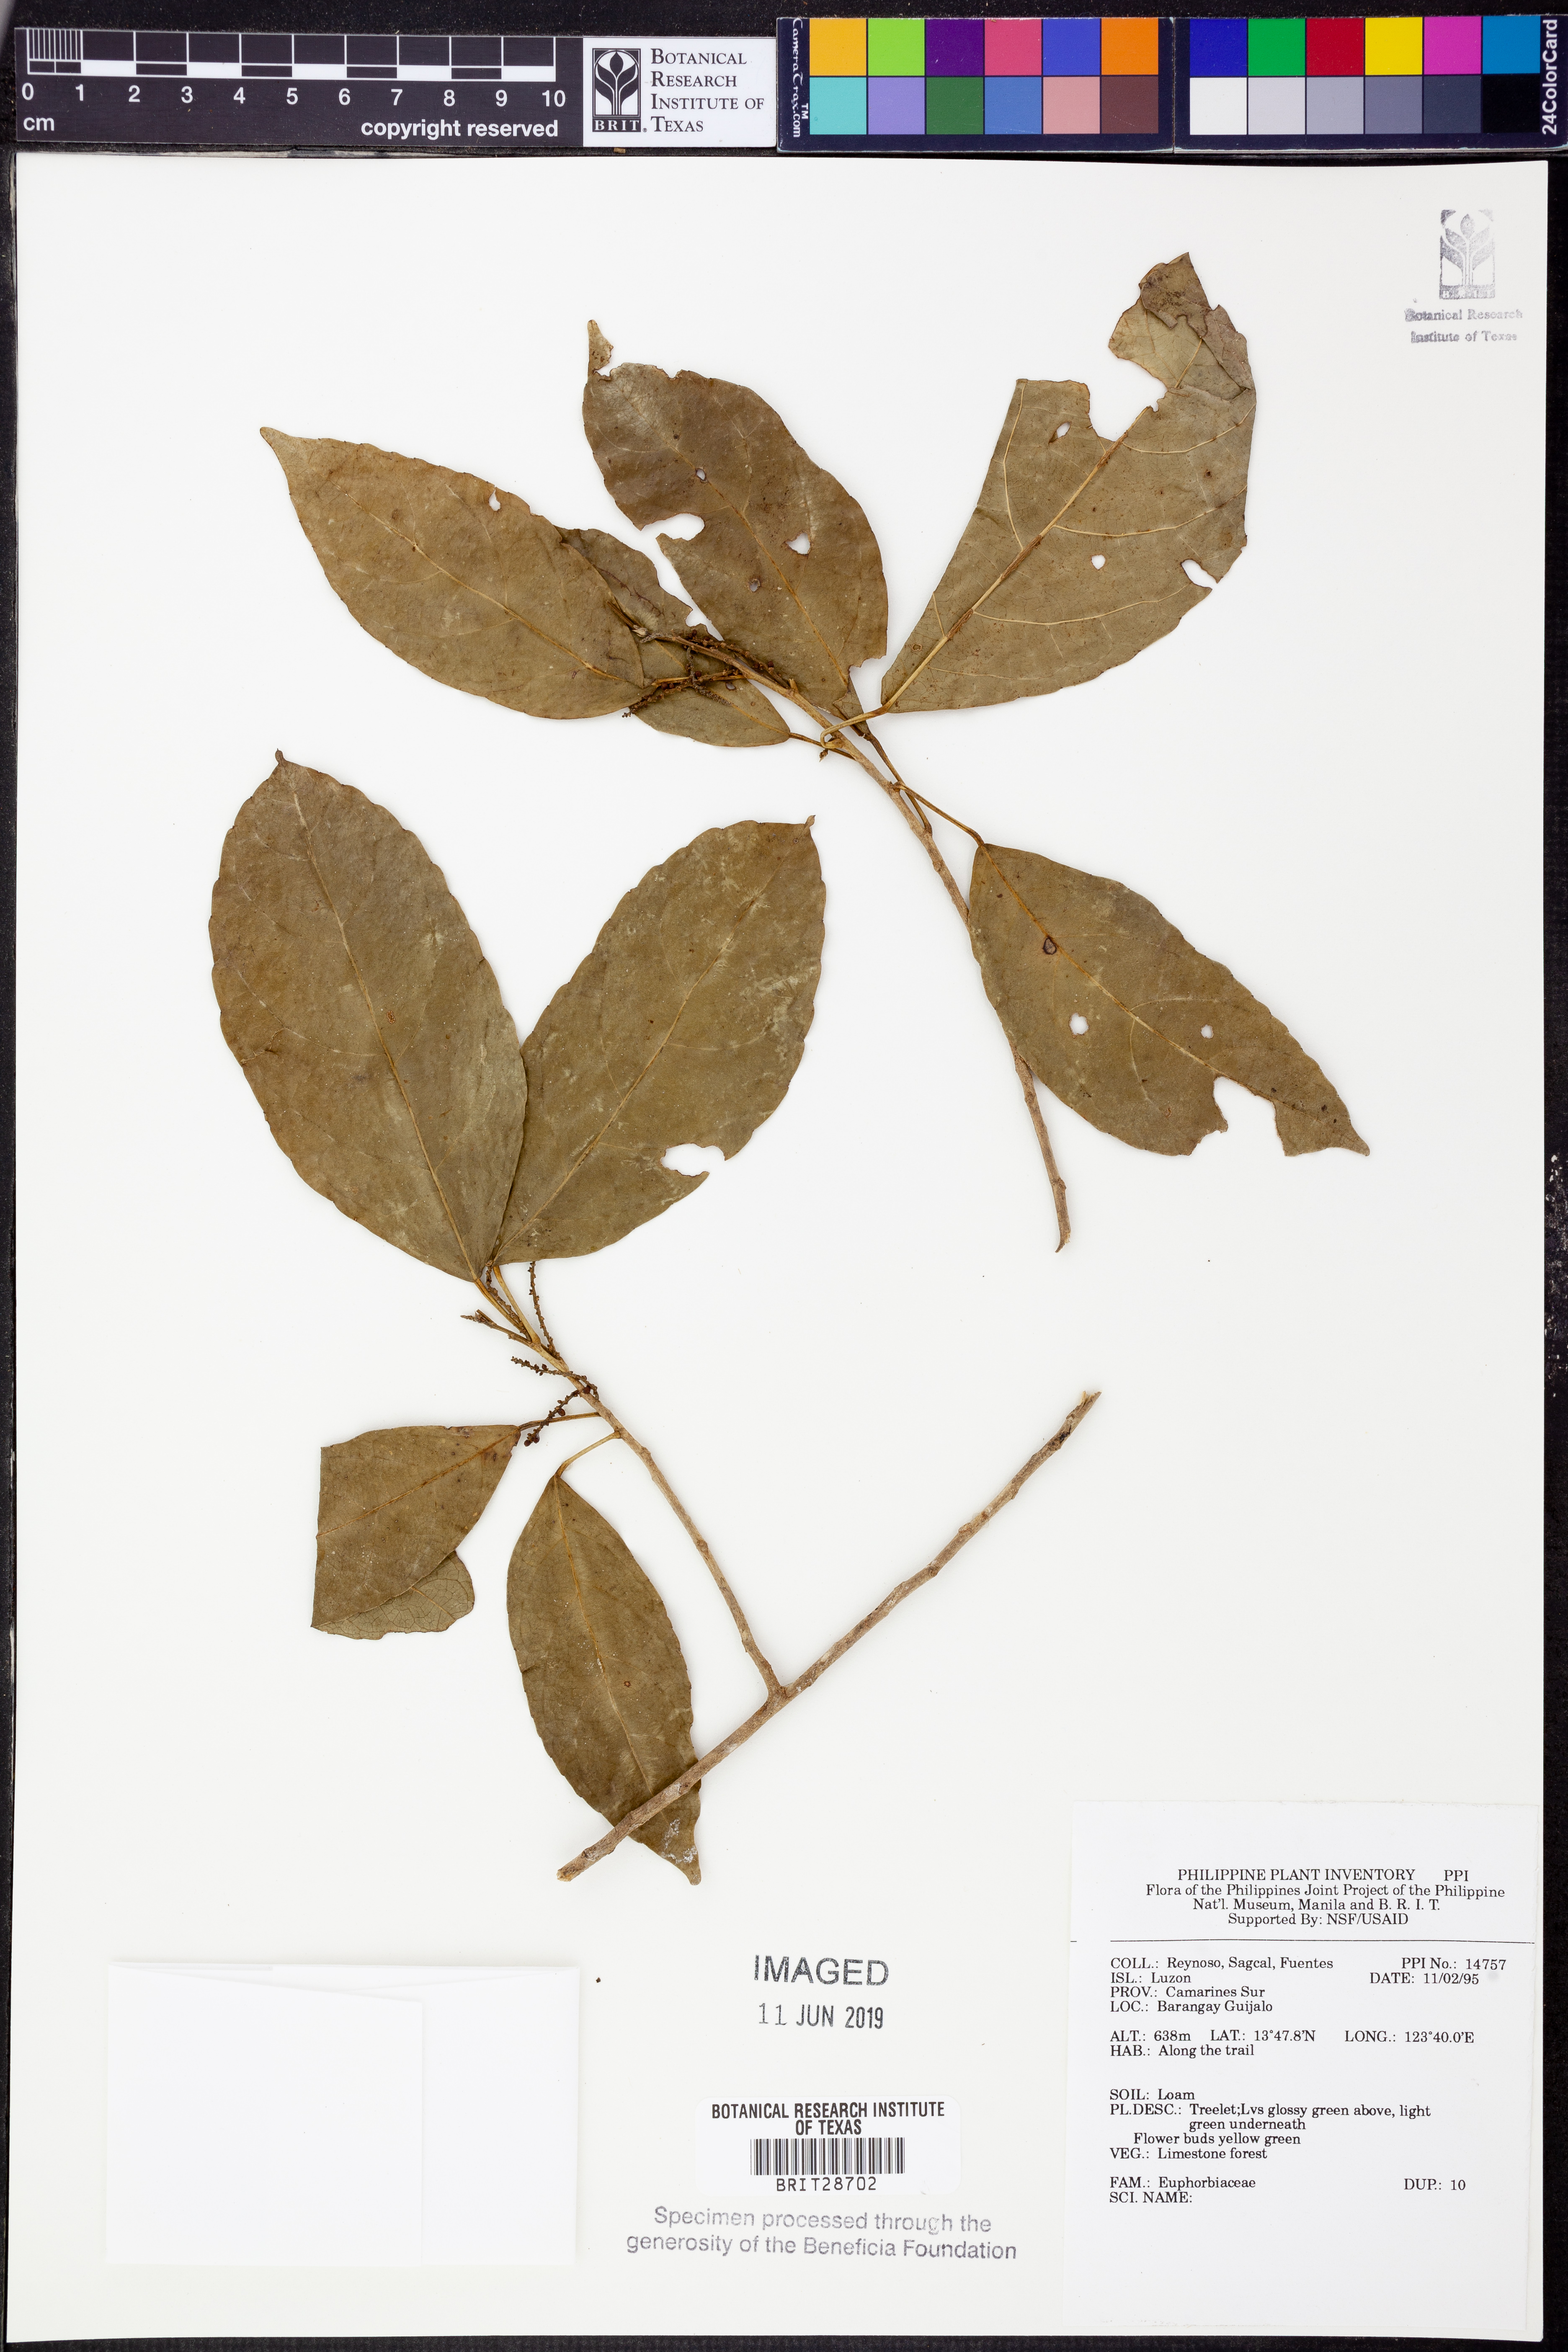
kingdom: Plantae
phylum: Tracheophyta
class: Magnoliopsida
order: Malpighiales
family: Euphorbiaceae
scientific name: Euphorbiaceae
